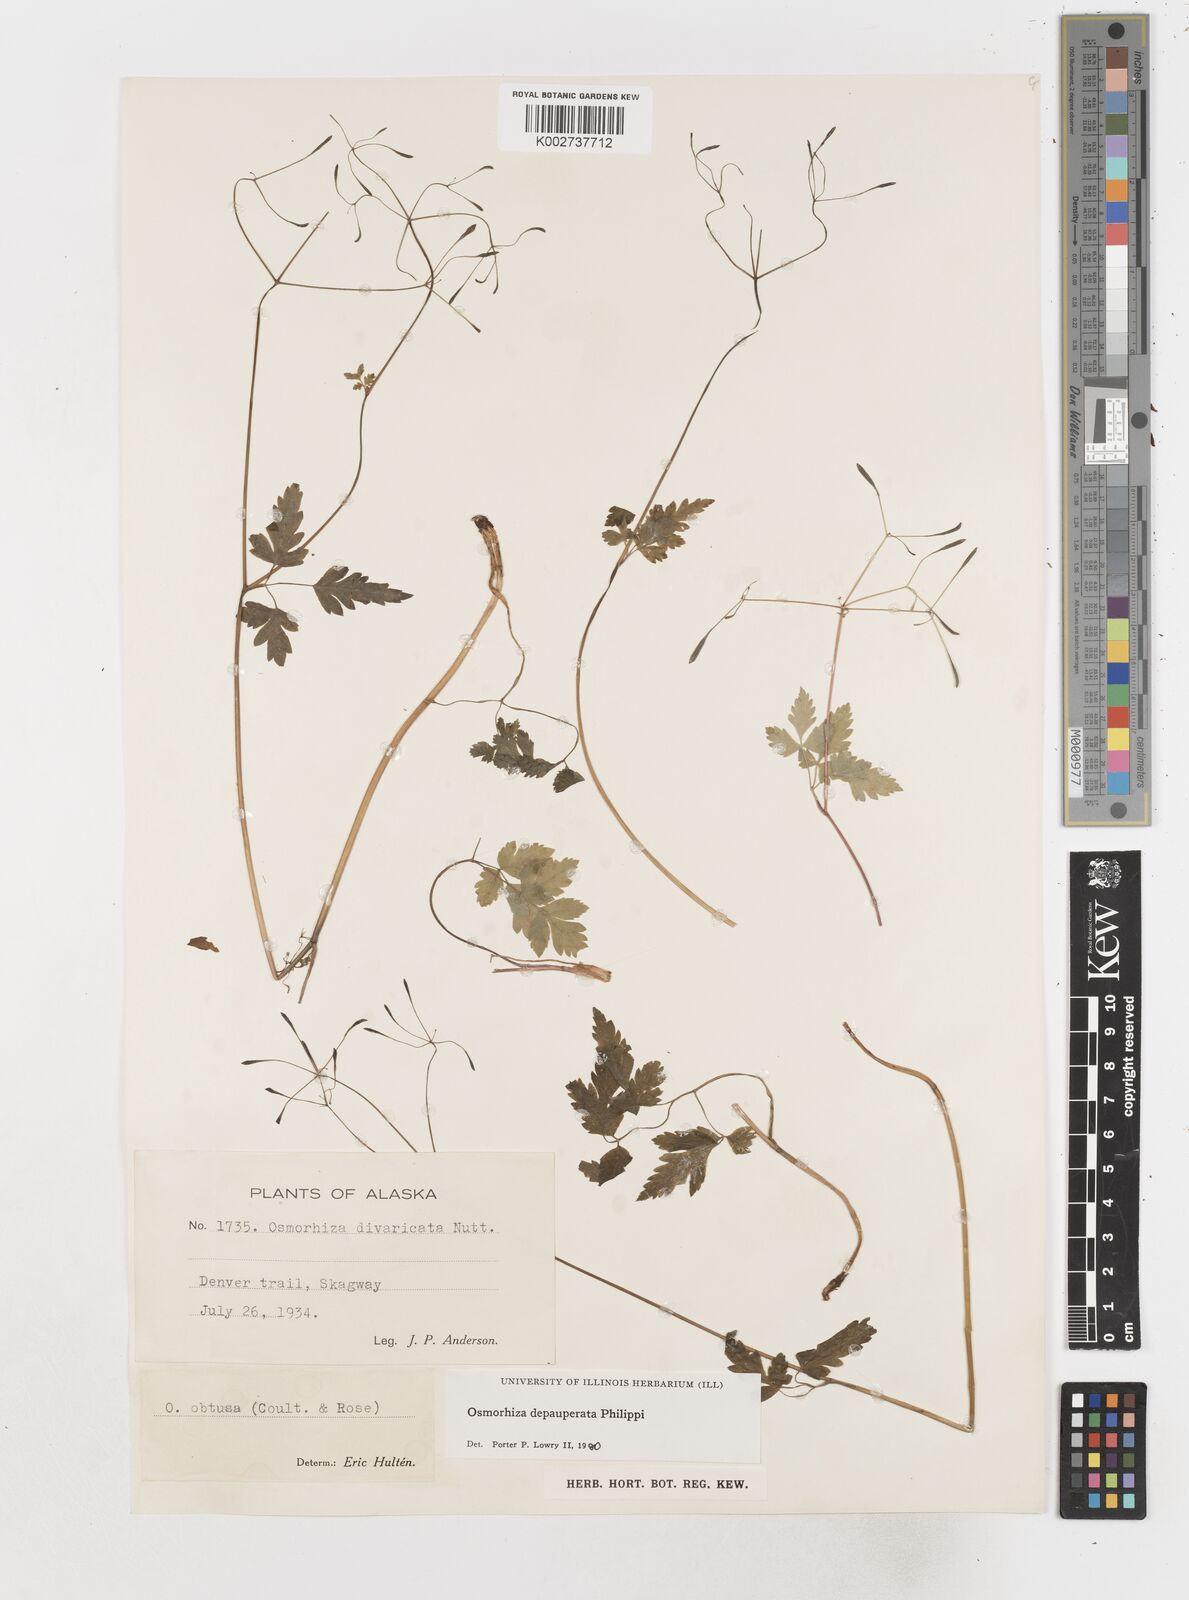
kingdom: Plantae
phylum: Tracheophyta
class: Magnoliopsida
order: Apiales
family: Apiaceae
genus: Osmorhiza
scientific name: Osmorhiza depauperata
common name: Blunt sweet cicely
